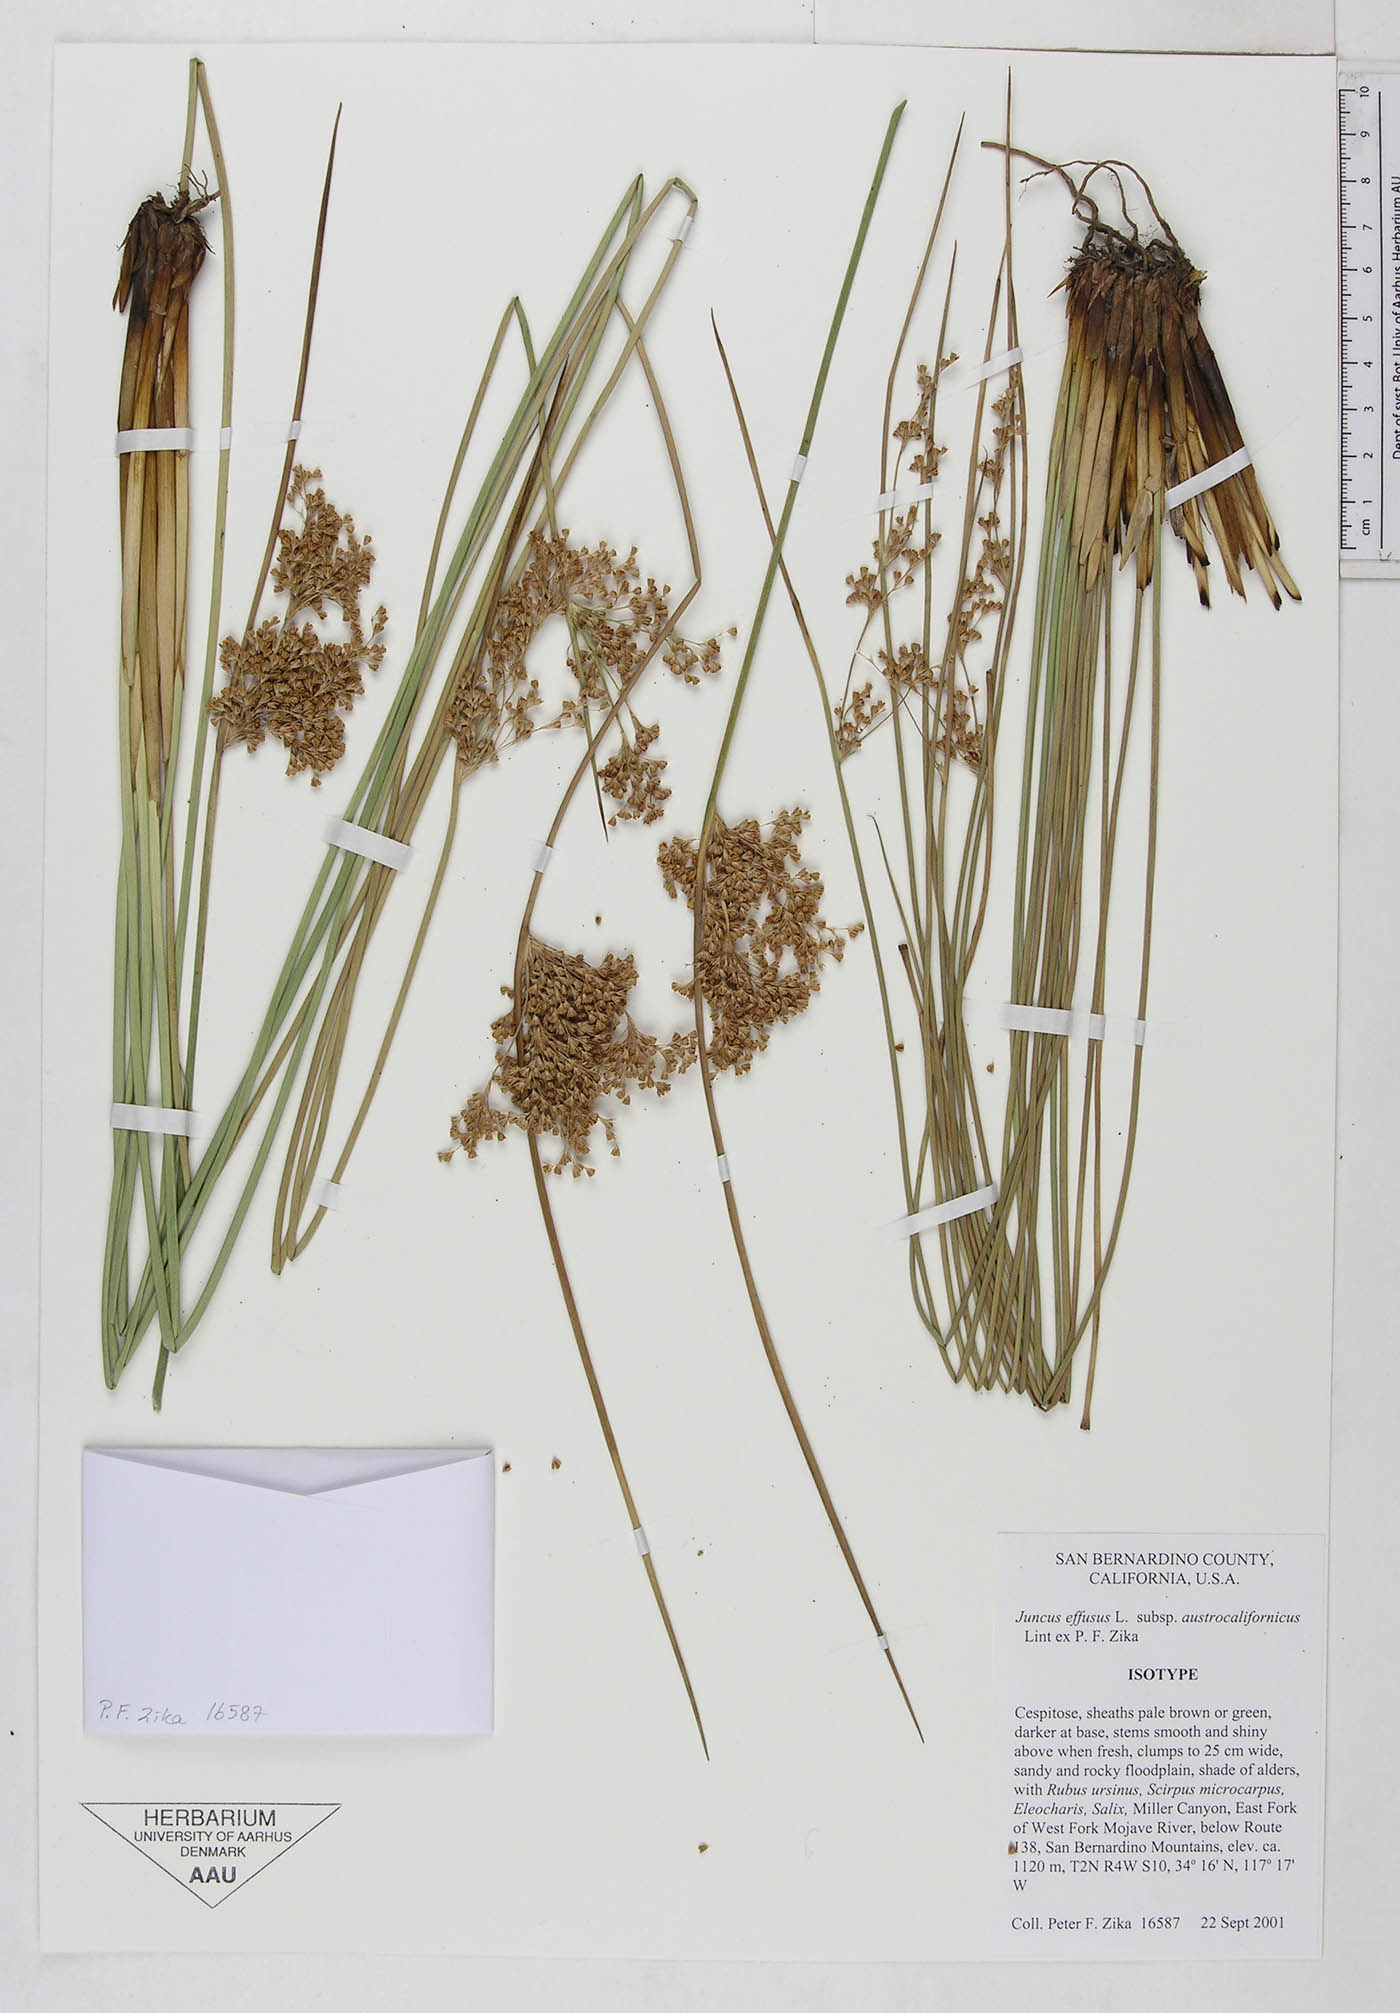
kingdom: Plantae
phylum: Tracheophyta
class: Liliopsida
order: Poales
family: Juncaceae
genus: Juncus
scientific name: Juncus effusus
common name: Soft rush
